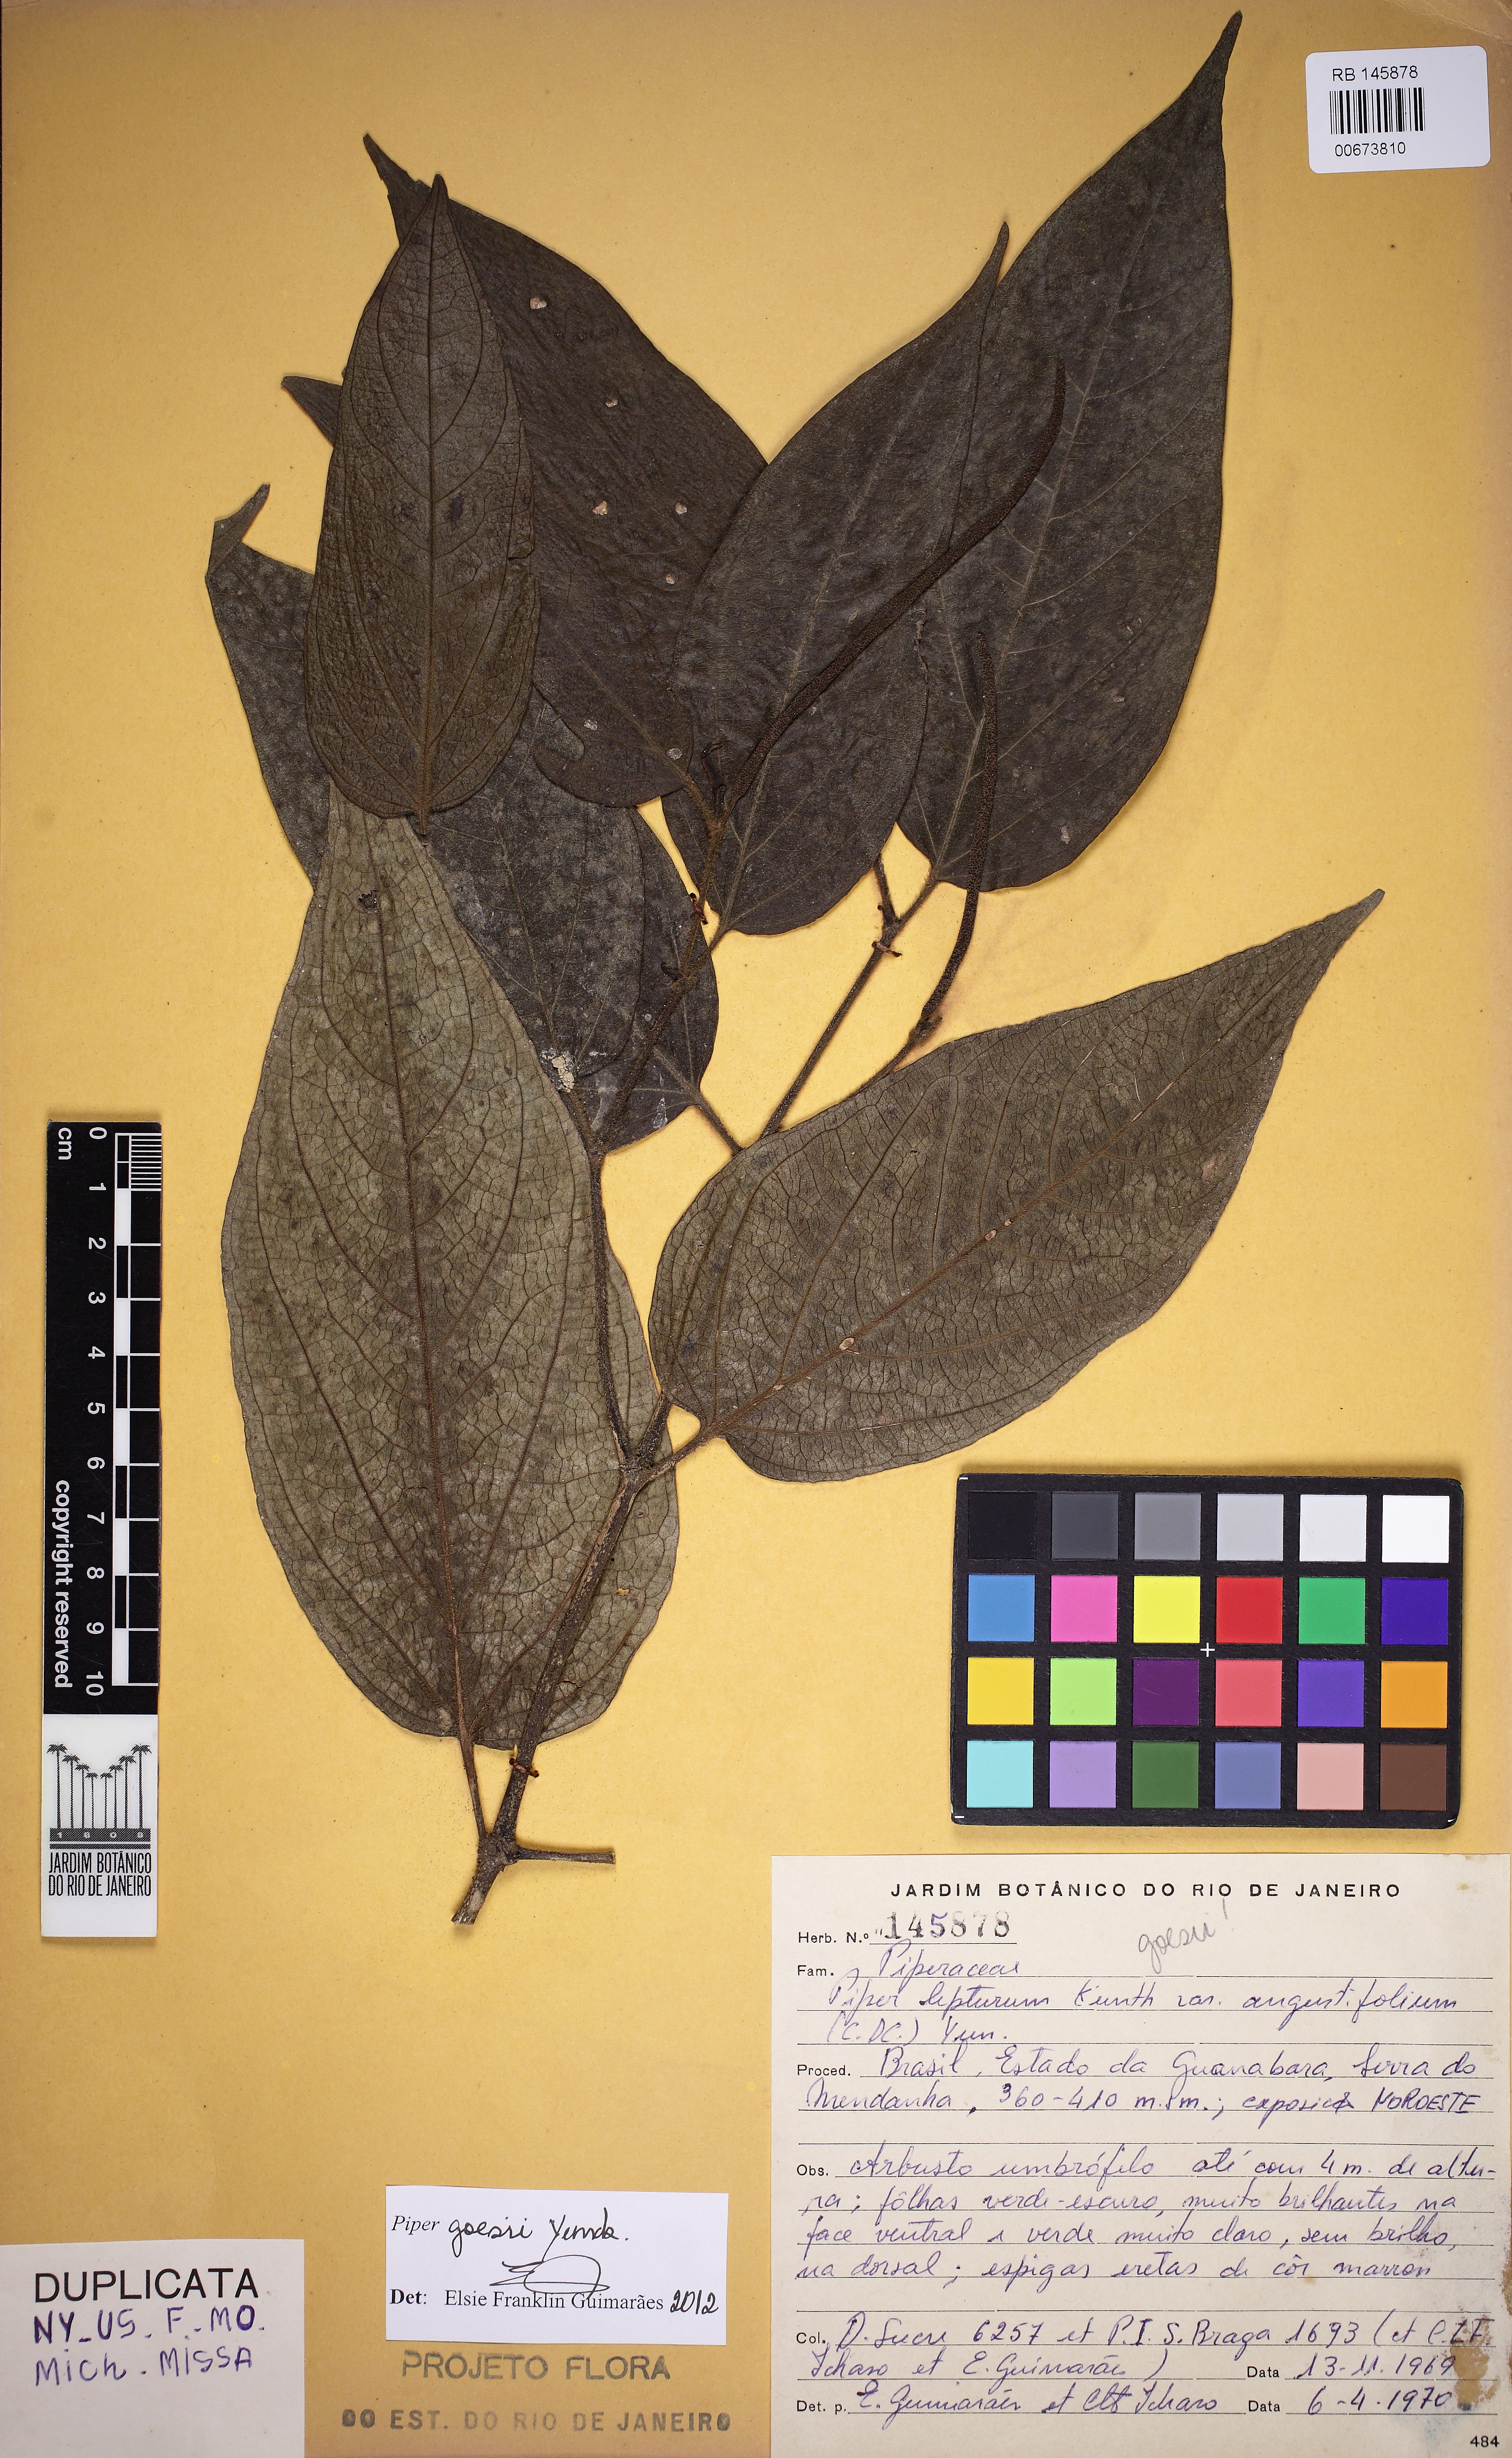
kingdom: Plantae
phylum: Tracheophyta
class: Magnoliopsida
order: Piperales
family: Piperaceae
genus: Piper
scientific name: Piper goesii
